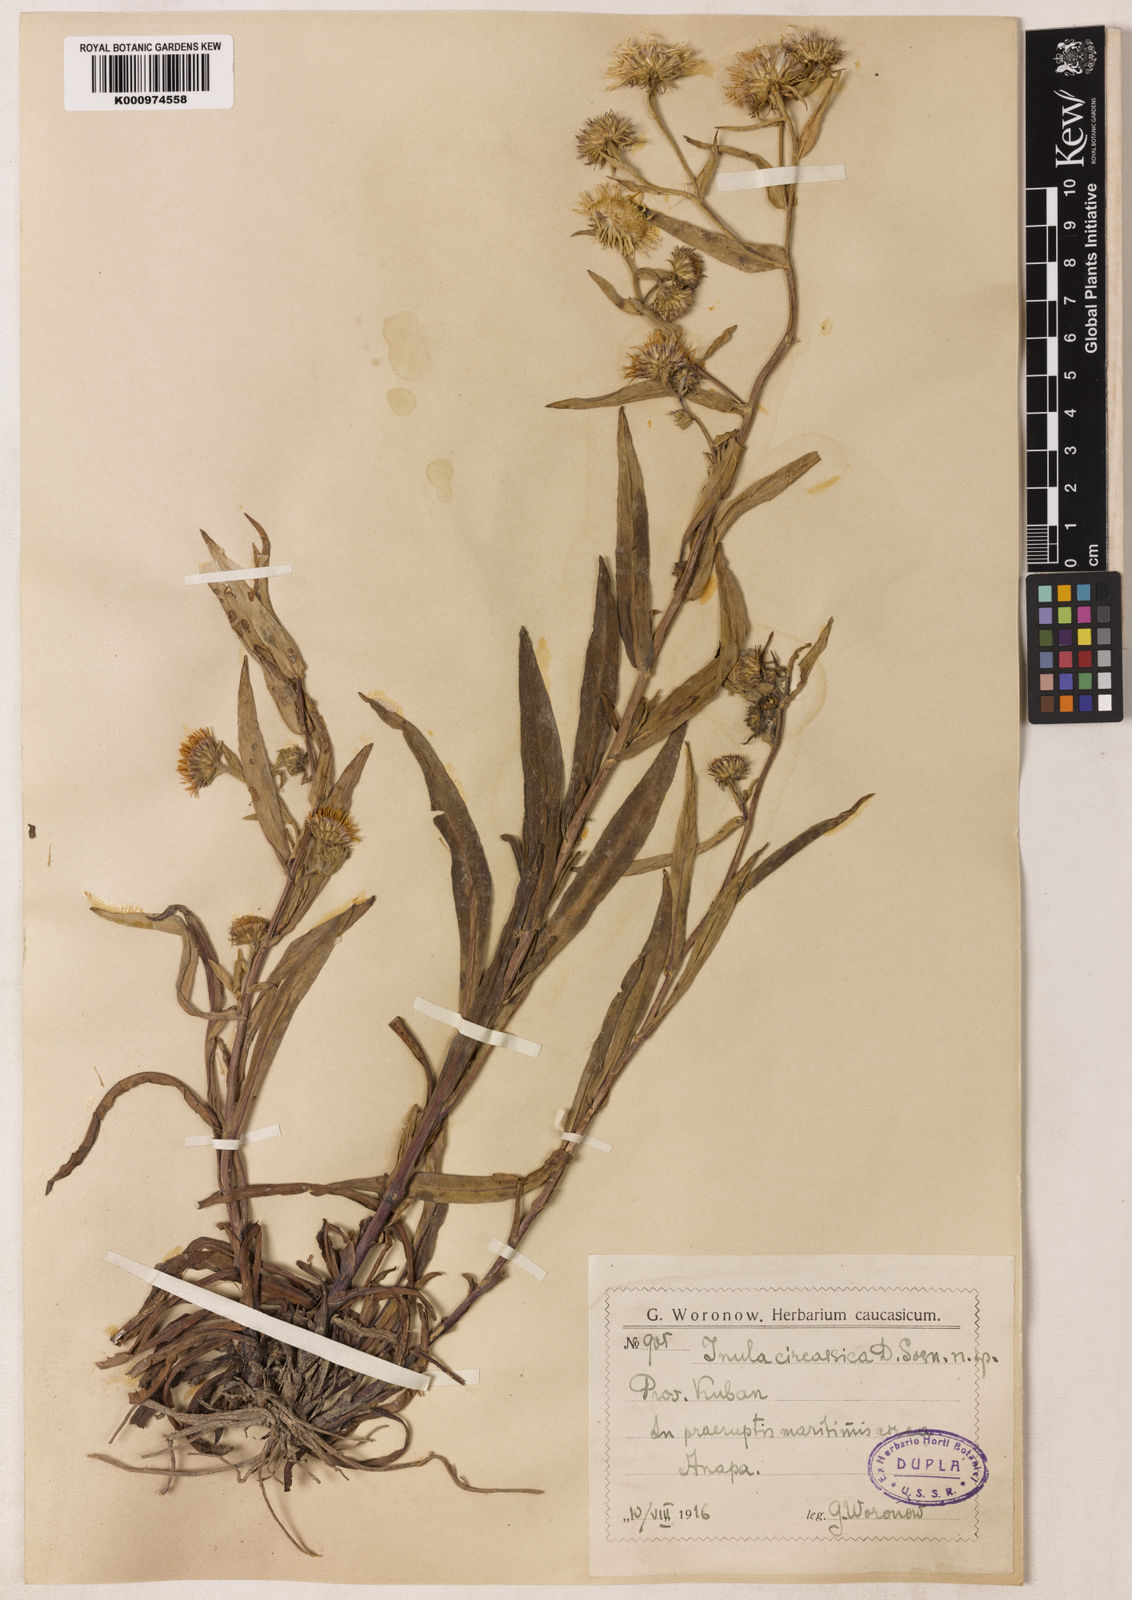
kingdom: Plantae
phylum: Tracheophyta
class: Magnoliopsida
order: Asterales
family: Asteraceae
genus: Inula
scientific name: Inula
